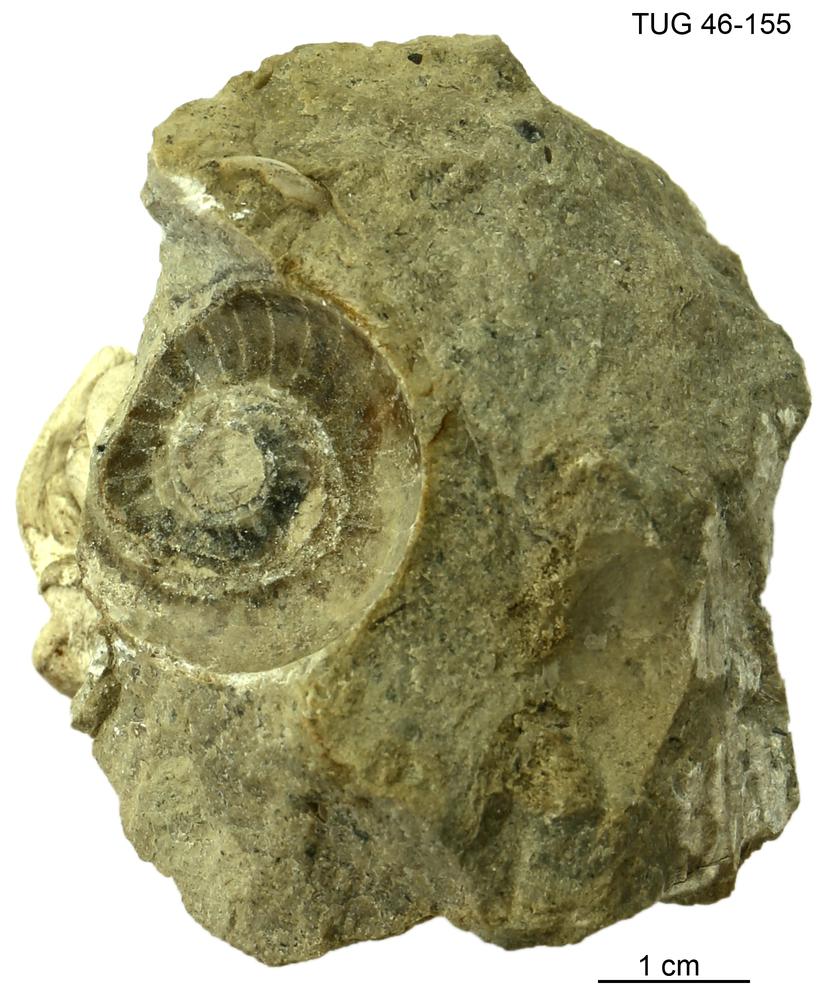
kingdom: Animalia
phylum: Mollusca
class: Cephalopoda
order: Nautilida
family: Nautilidae
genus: Cyrtoceras
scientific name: Cyrtoceras
